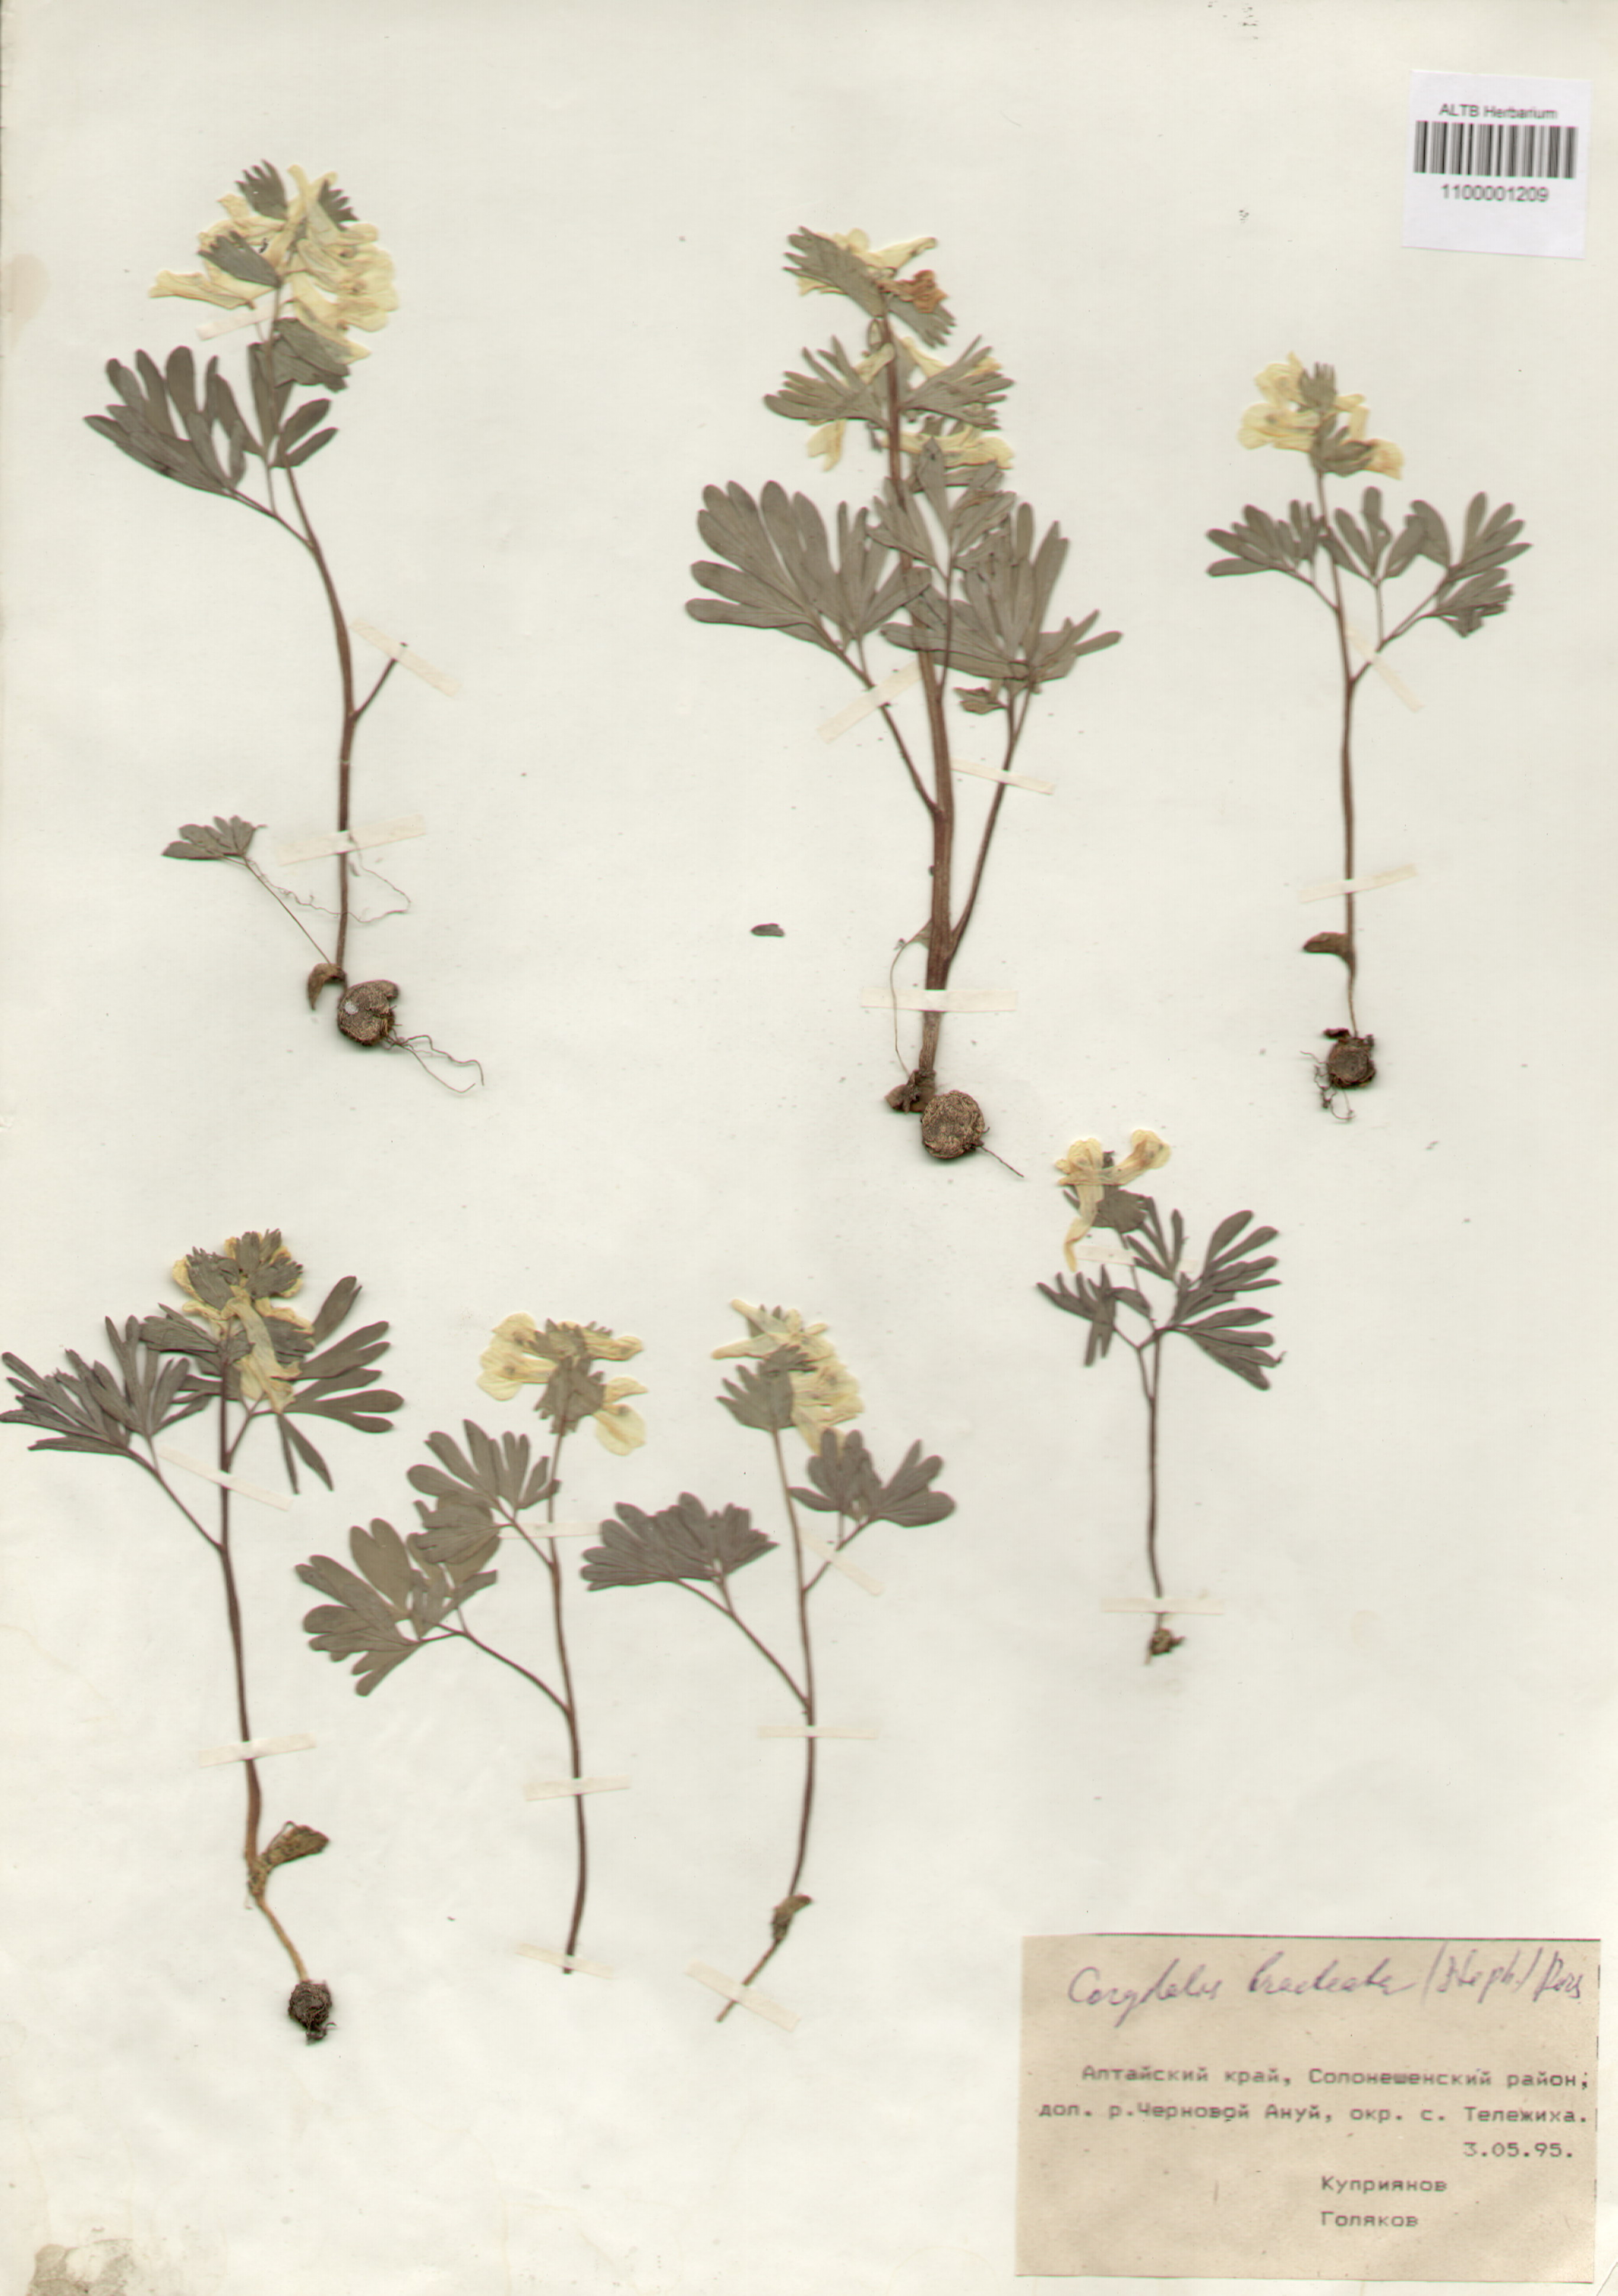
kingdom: Plantae
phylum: Tracheophyta
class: Magnoliopsida
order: Ranunculales
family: Papaveraceae
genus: Corydalis
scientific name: Corydalis bracteata
